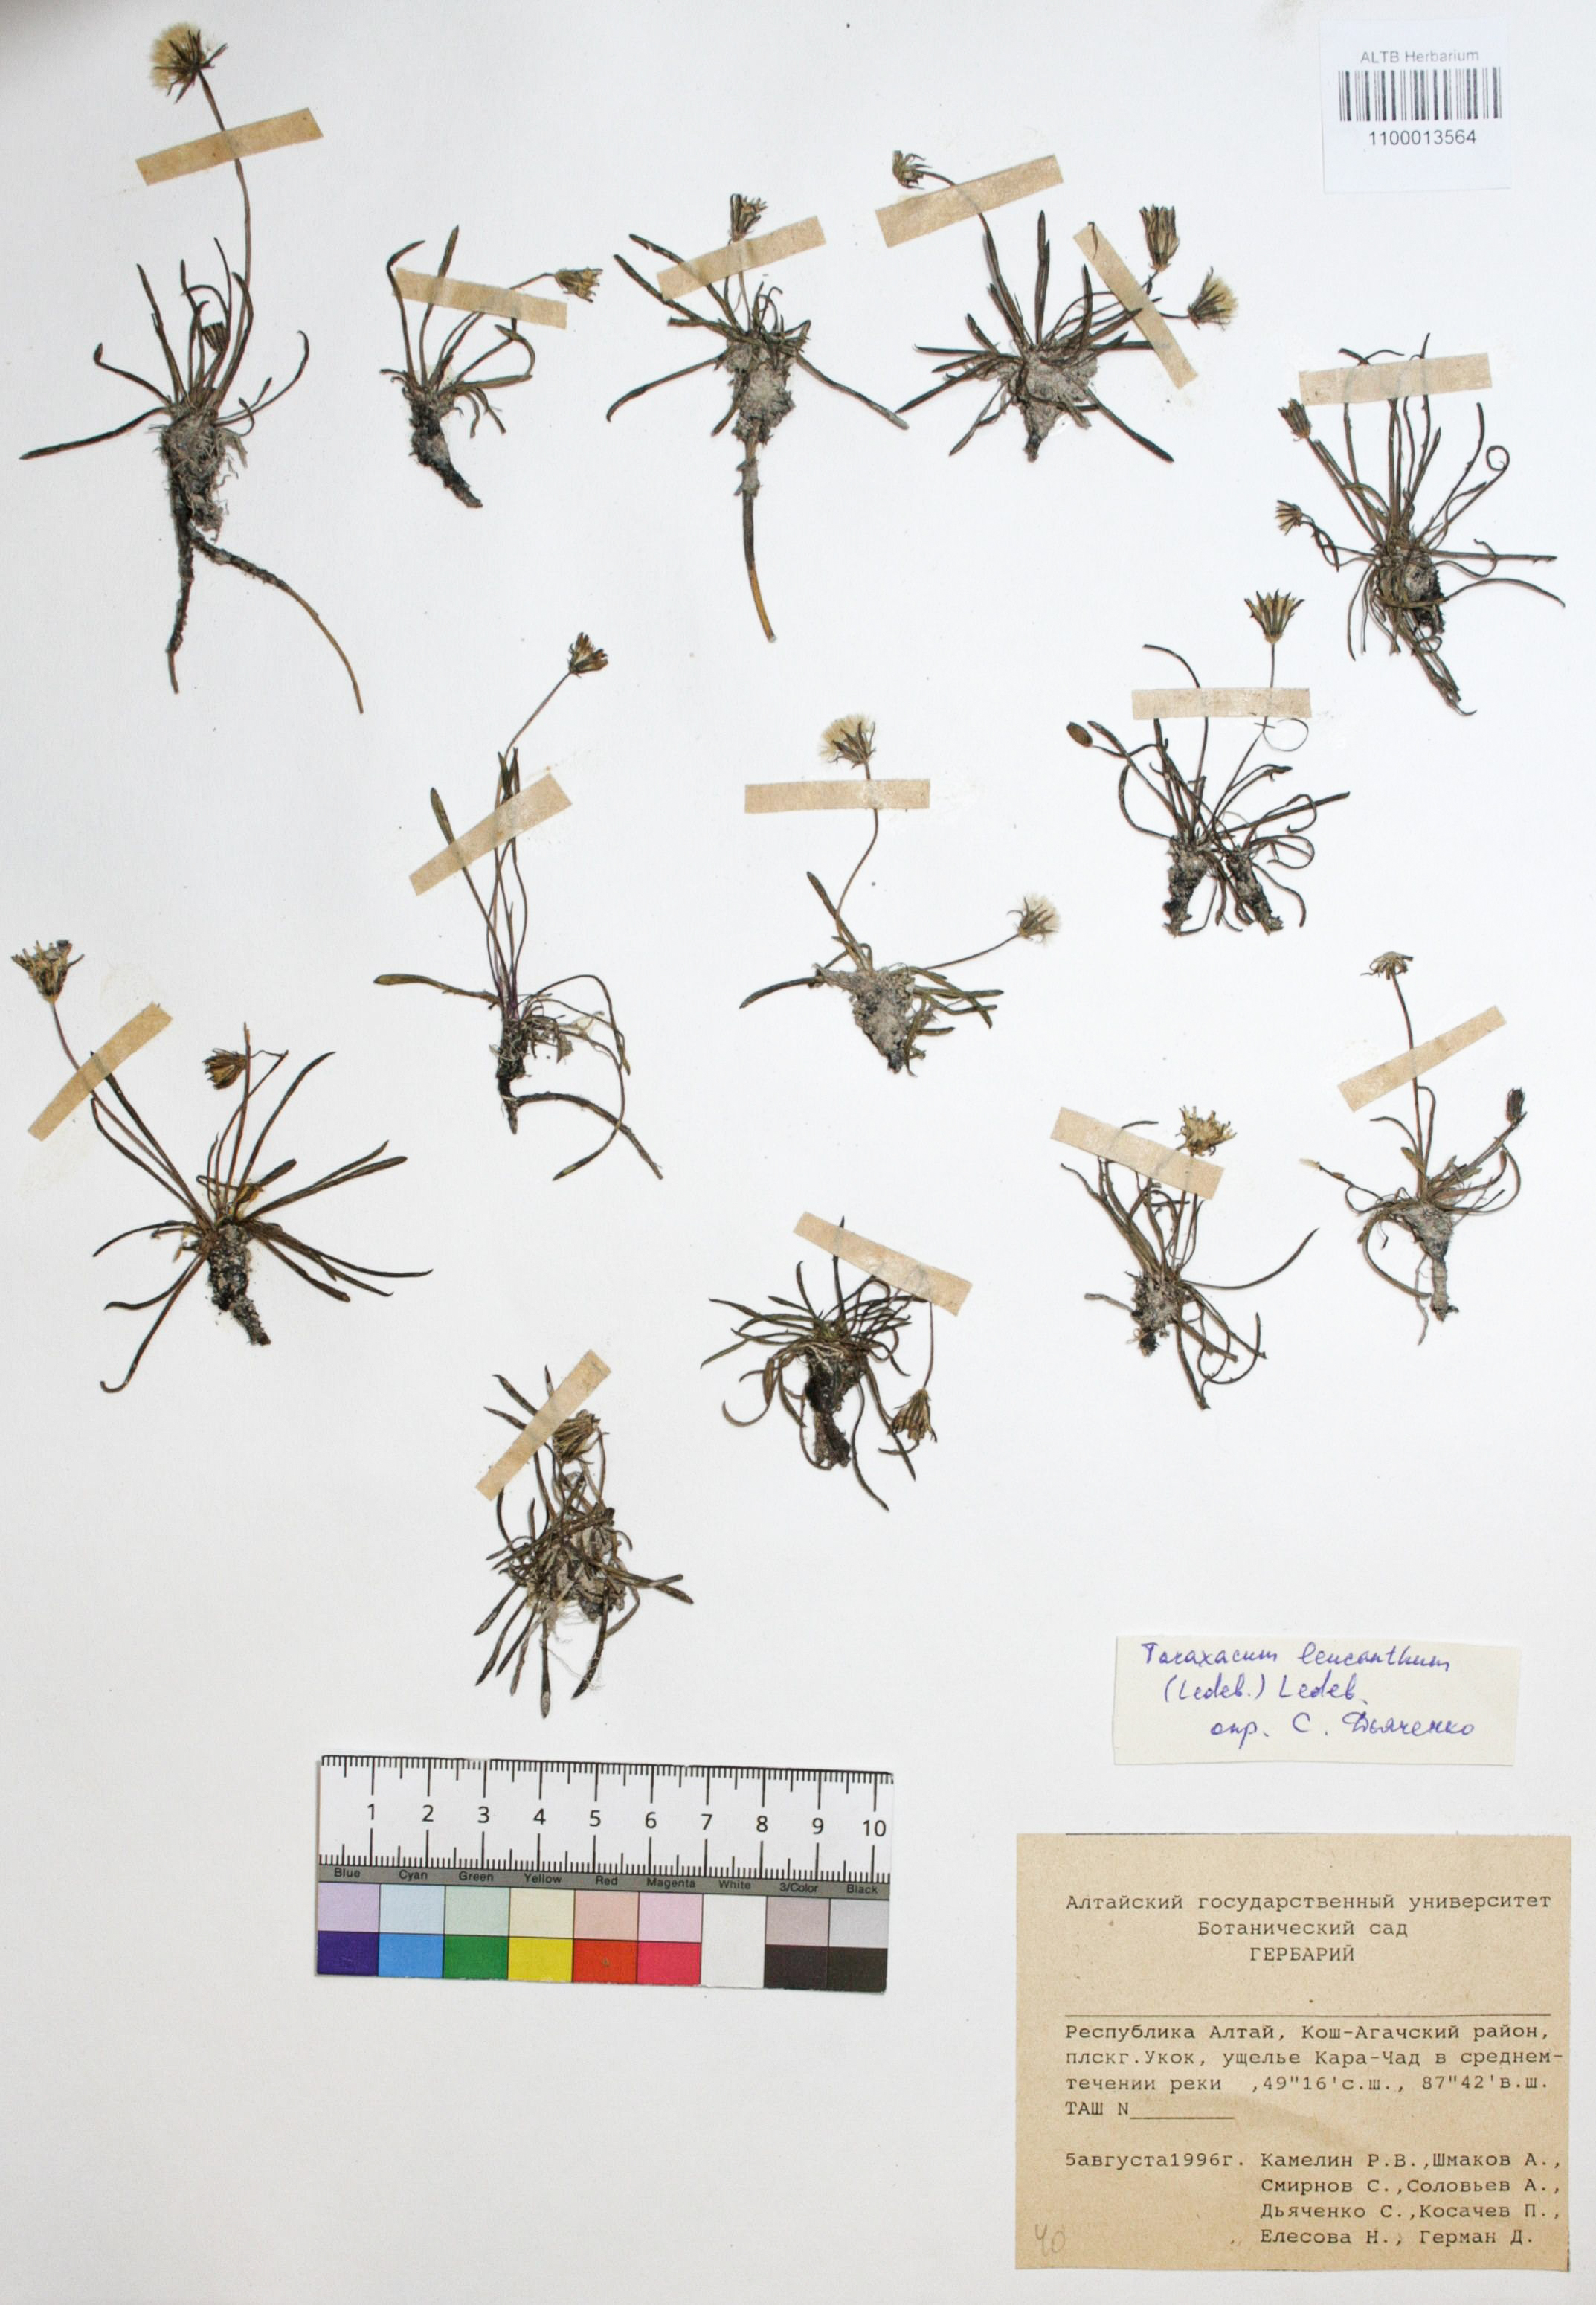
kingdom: Plantae
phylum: Tracheophyta
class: Magnoliopsida
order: Asterales
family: Asteraceae
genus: Taraxacum
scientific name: Taraxacum leucanthum
